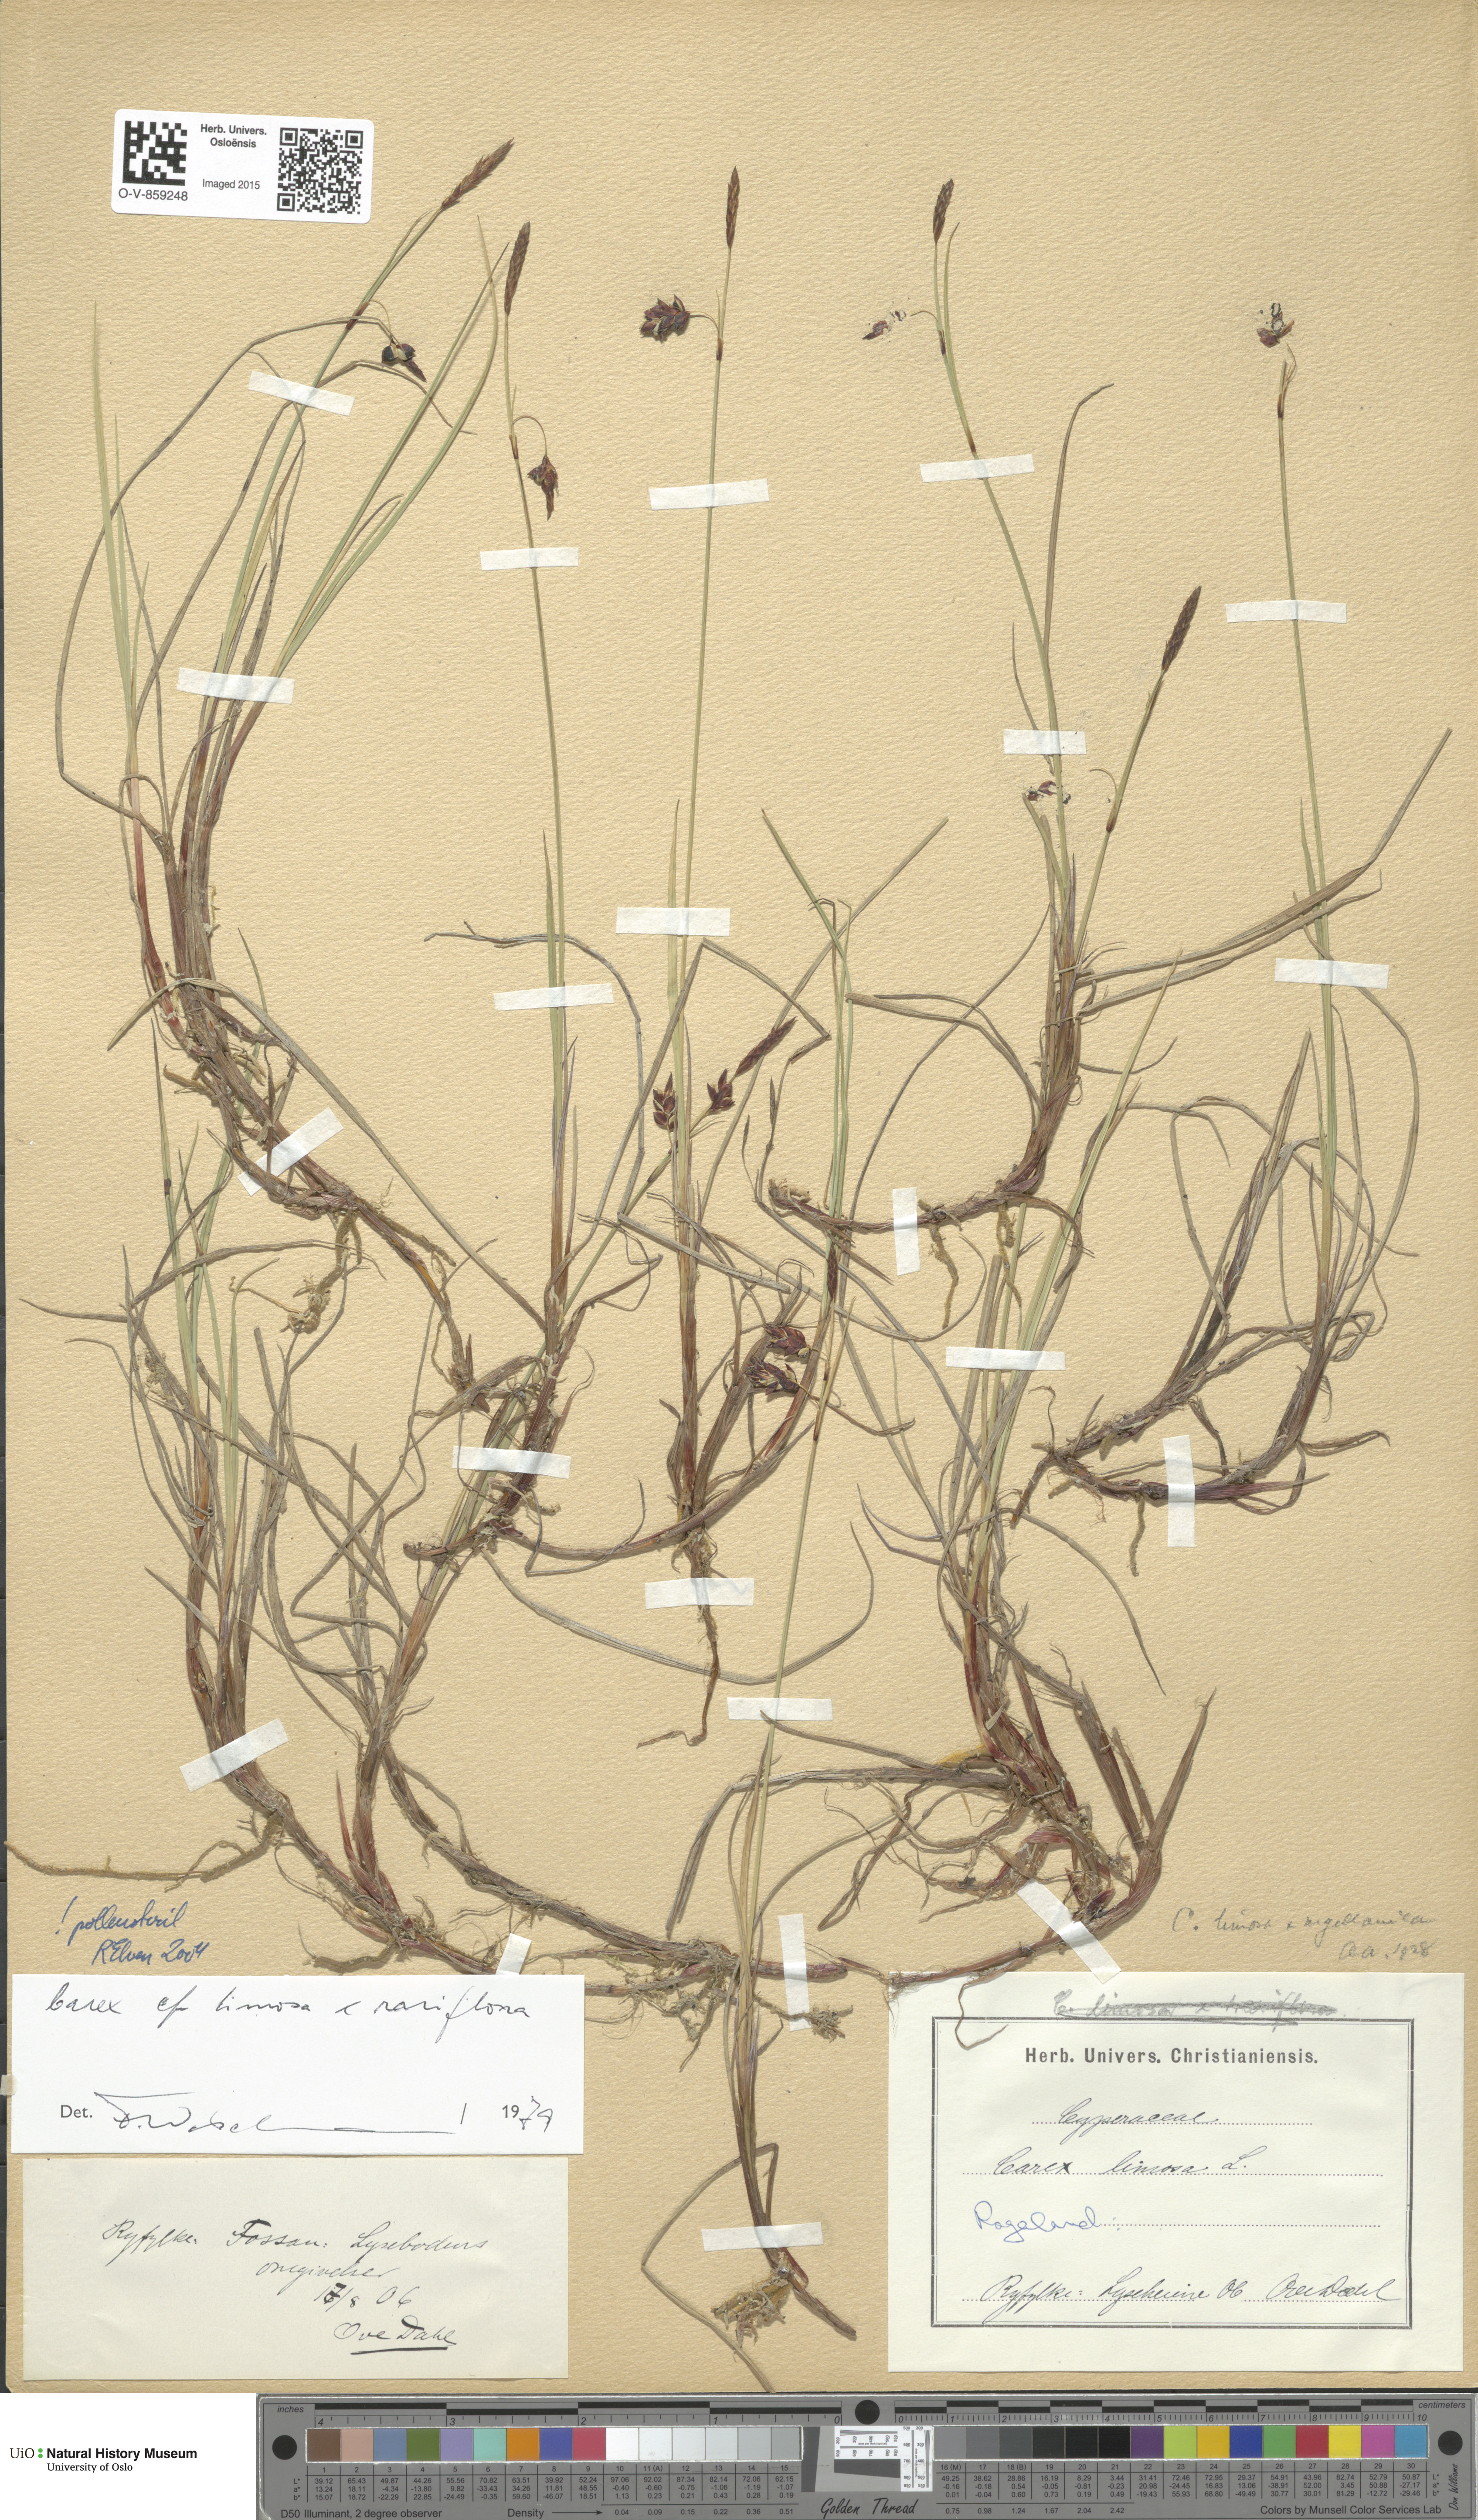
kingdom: Plantae
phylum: Tracheophyta
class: Liliopsida
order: Poales
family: Cyperaceae
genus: Carex
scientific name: Carex
